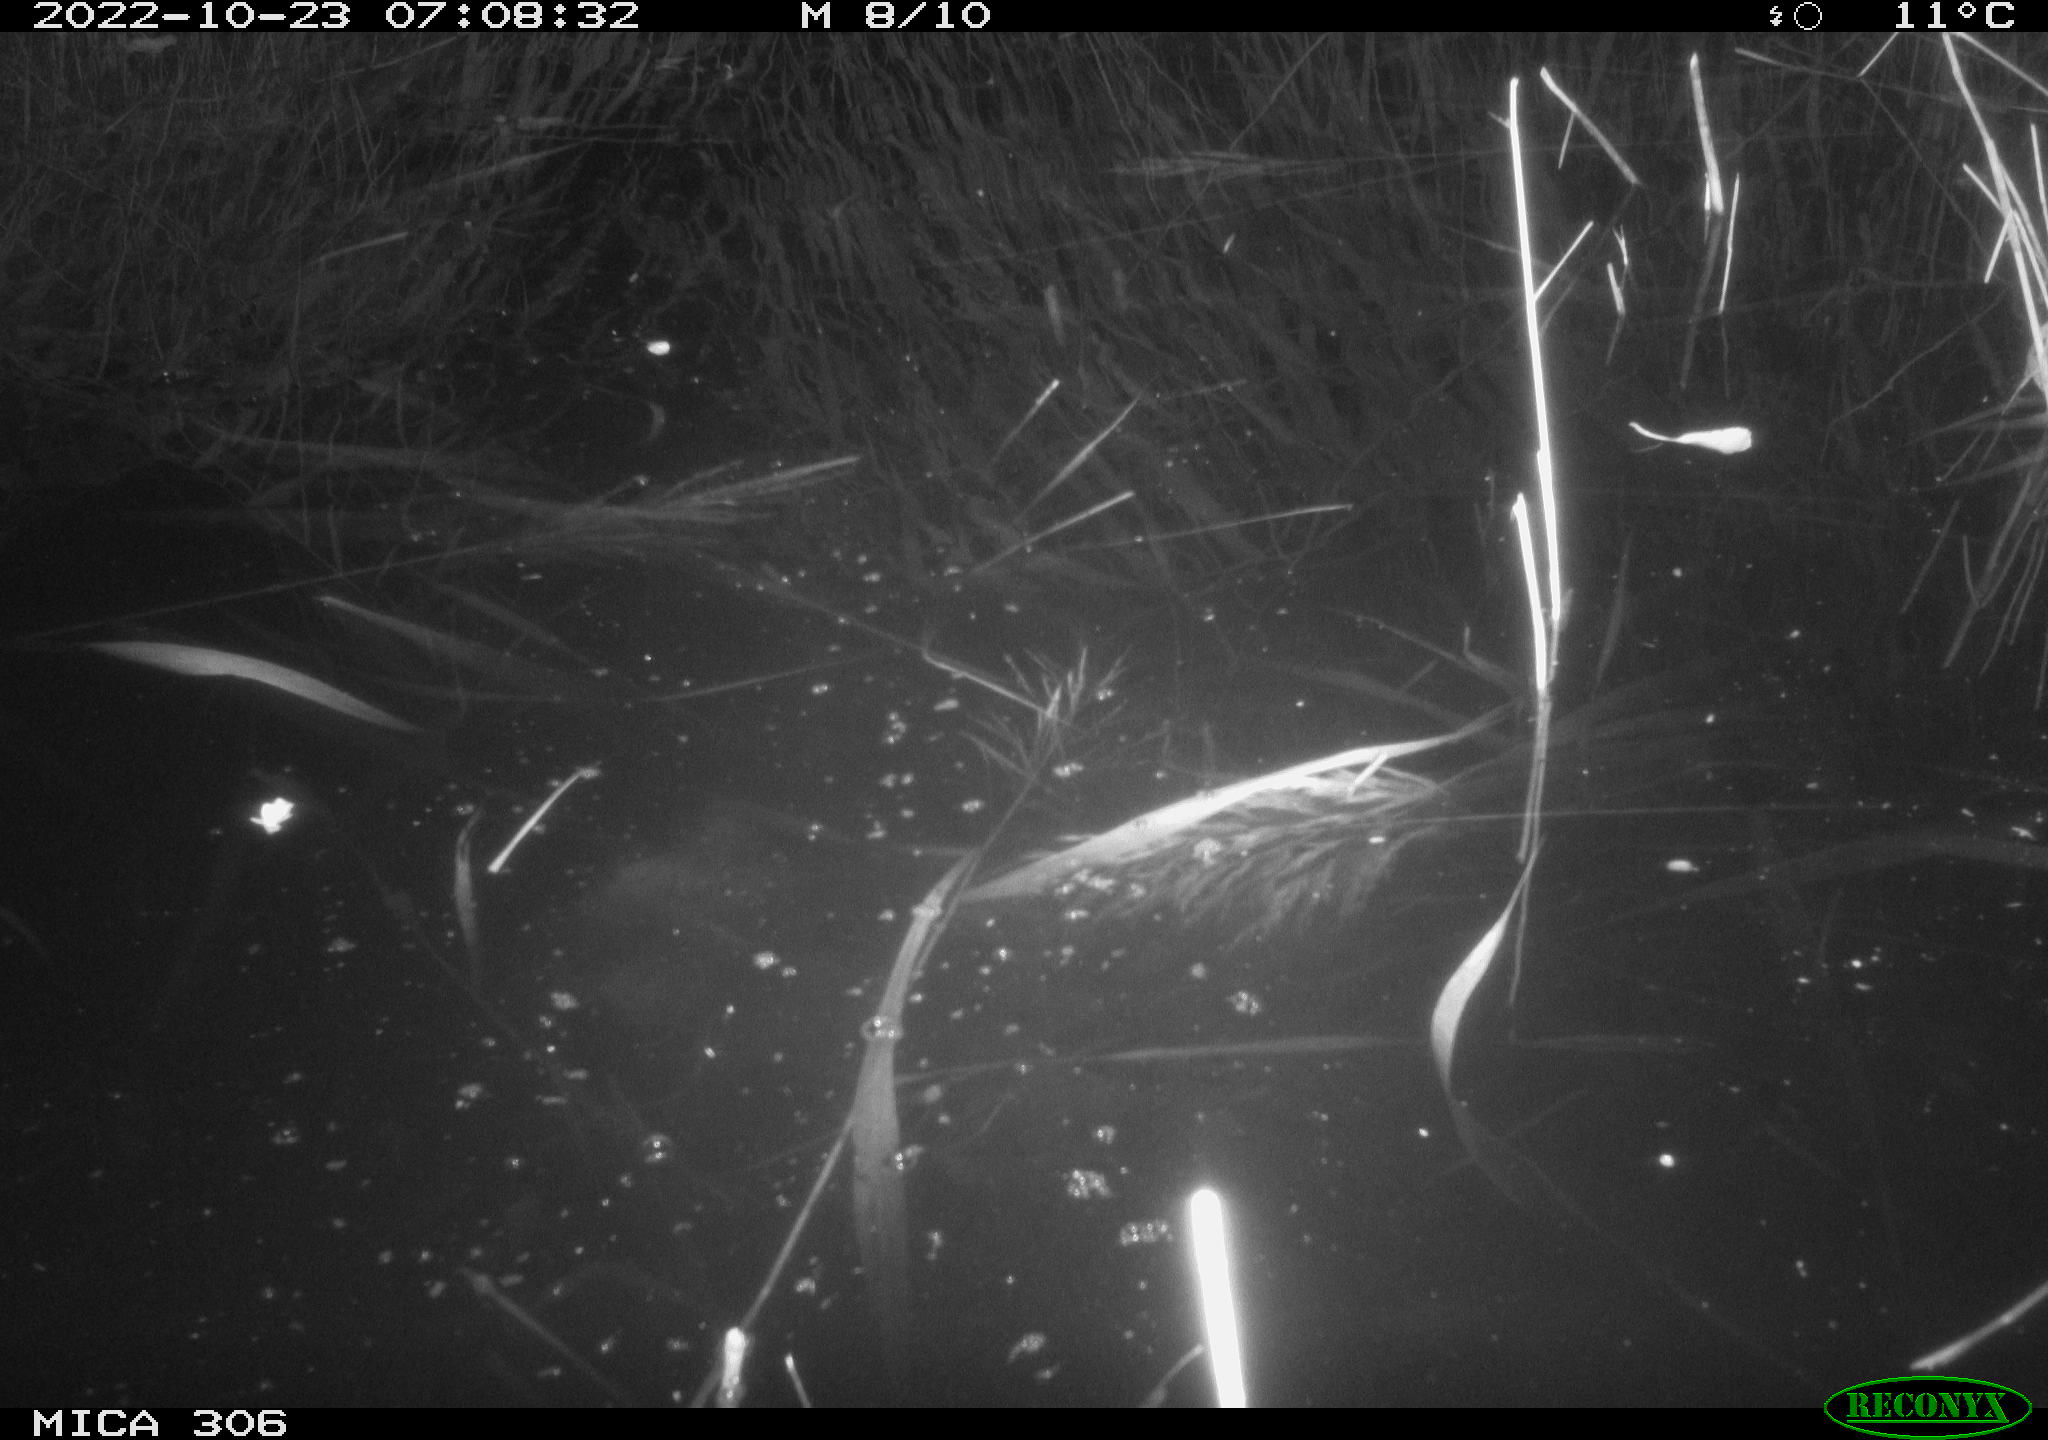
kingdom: Animalia
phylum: Chordata
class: Mammalia
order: Rodentia
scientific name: Rodentia
